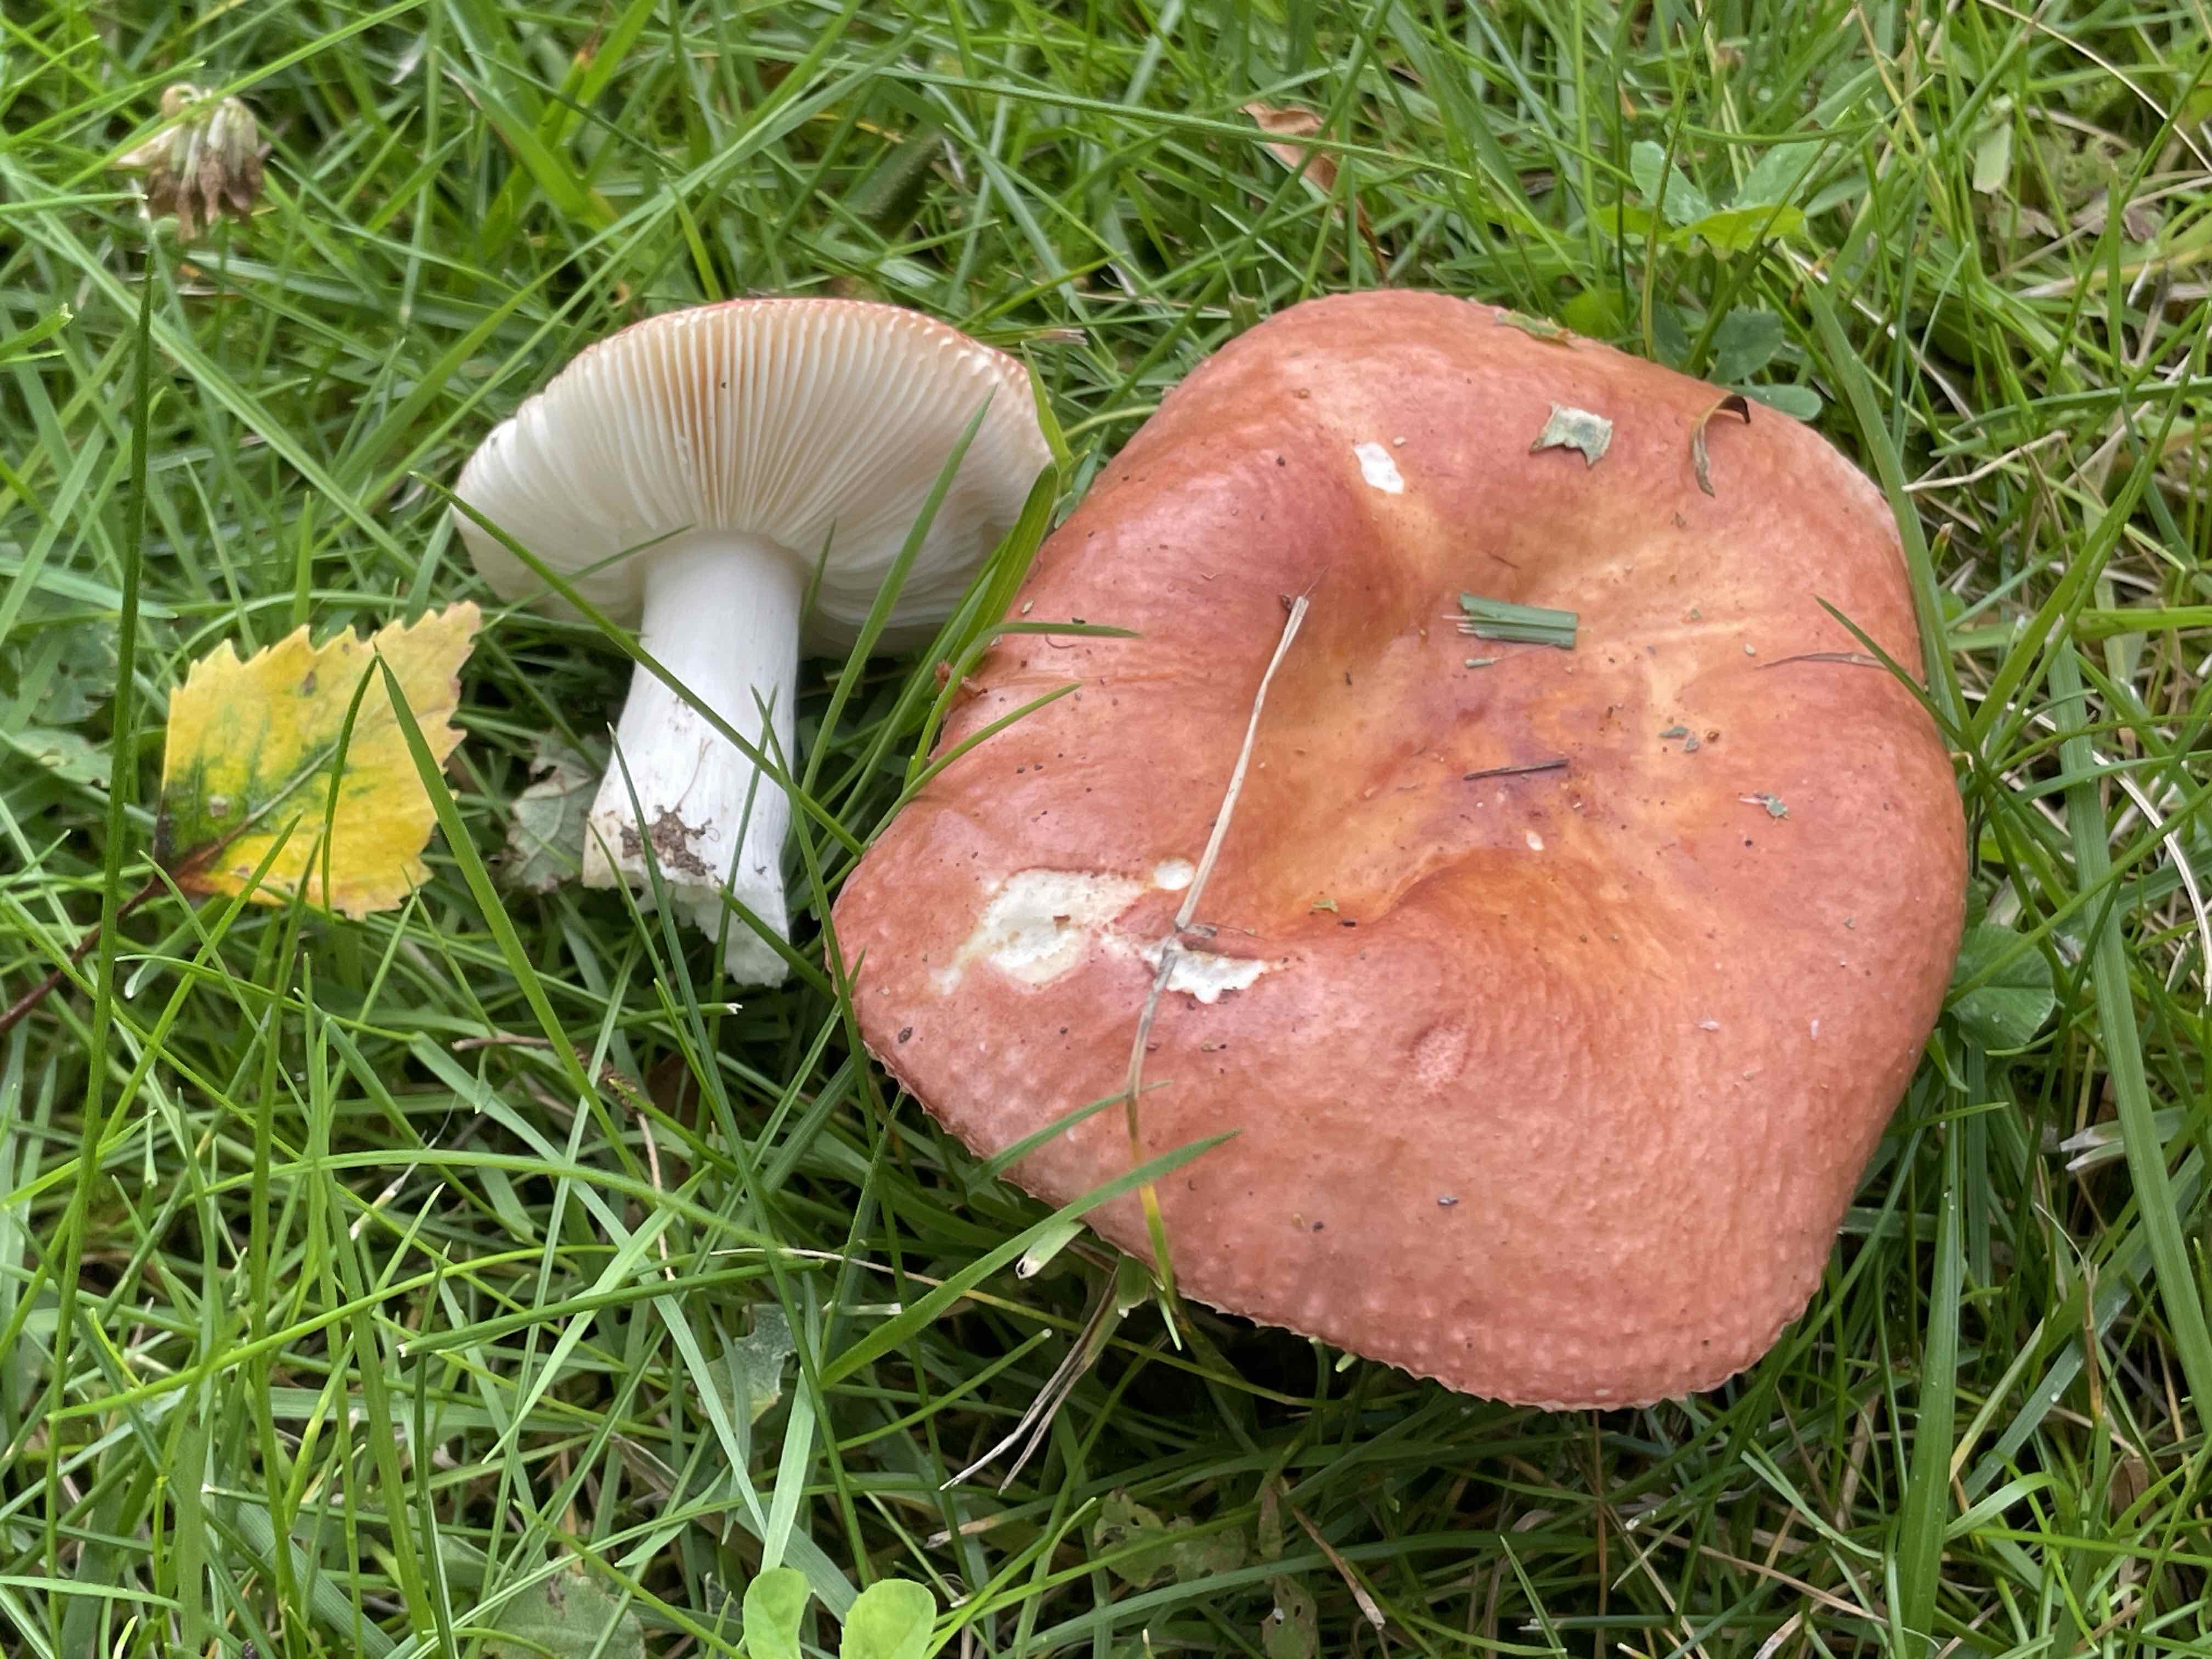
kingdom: Fungi
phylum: Basidiomycota
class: Agaricomycetes
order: Russulales
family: Russulaceae
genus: Russula
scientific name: Russula velenovskyi
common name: orangerød skørhat
